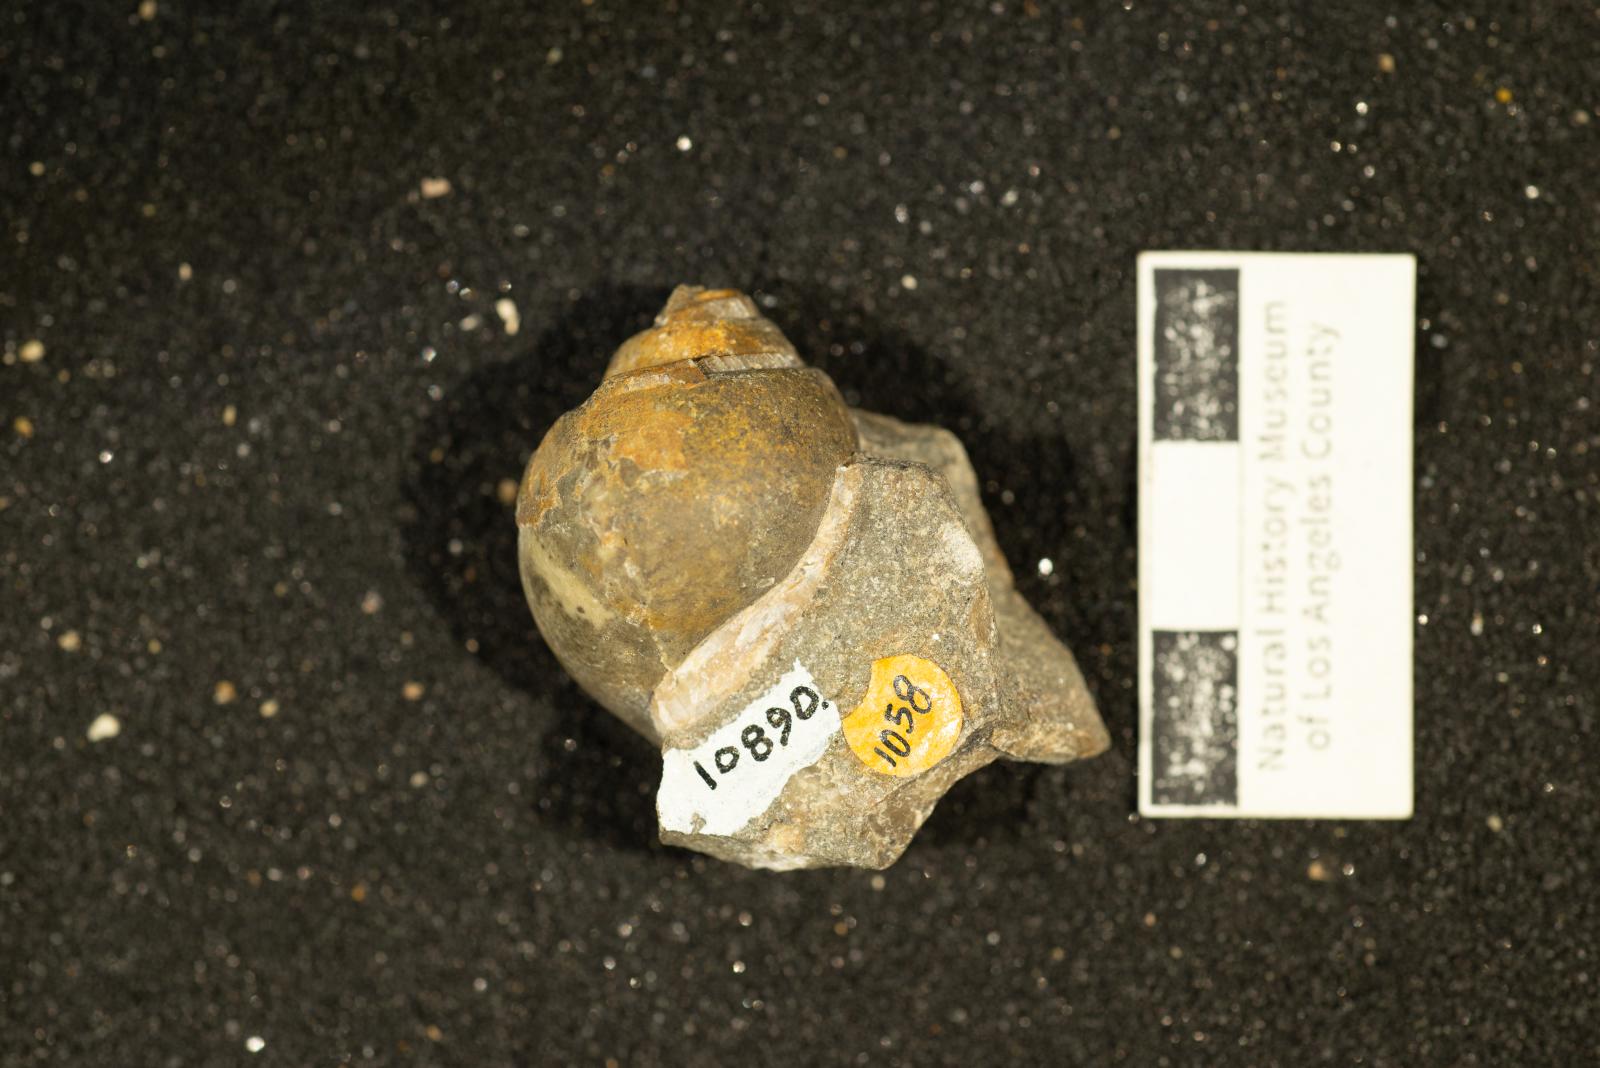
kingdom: Animalia
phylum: Mollusca
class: Gastropoda
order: Architaenioglossa
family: Ampullinidae
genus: Ampullina
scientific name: Ampullina Amauropsis pseudoalveata
